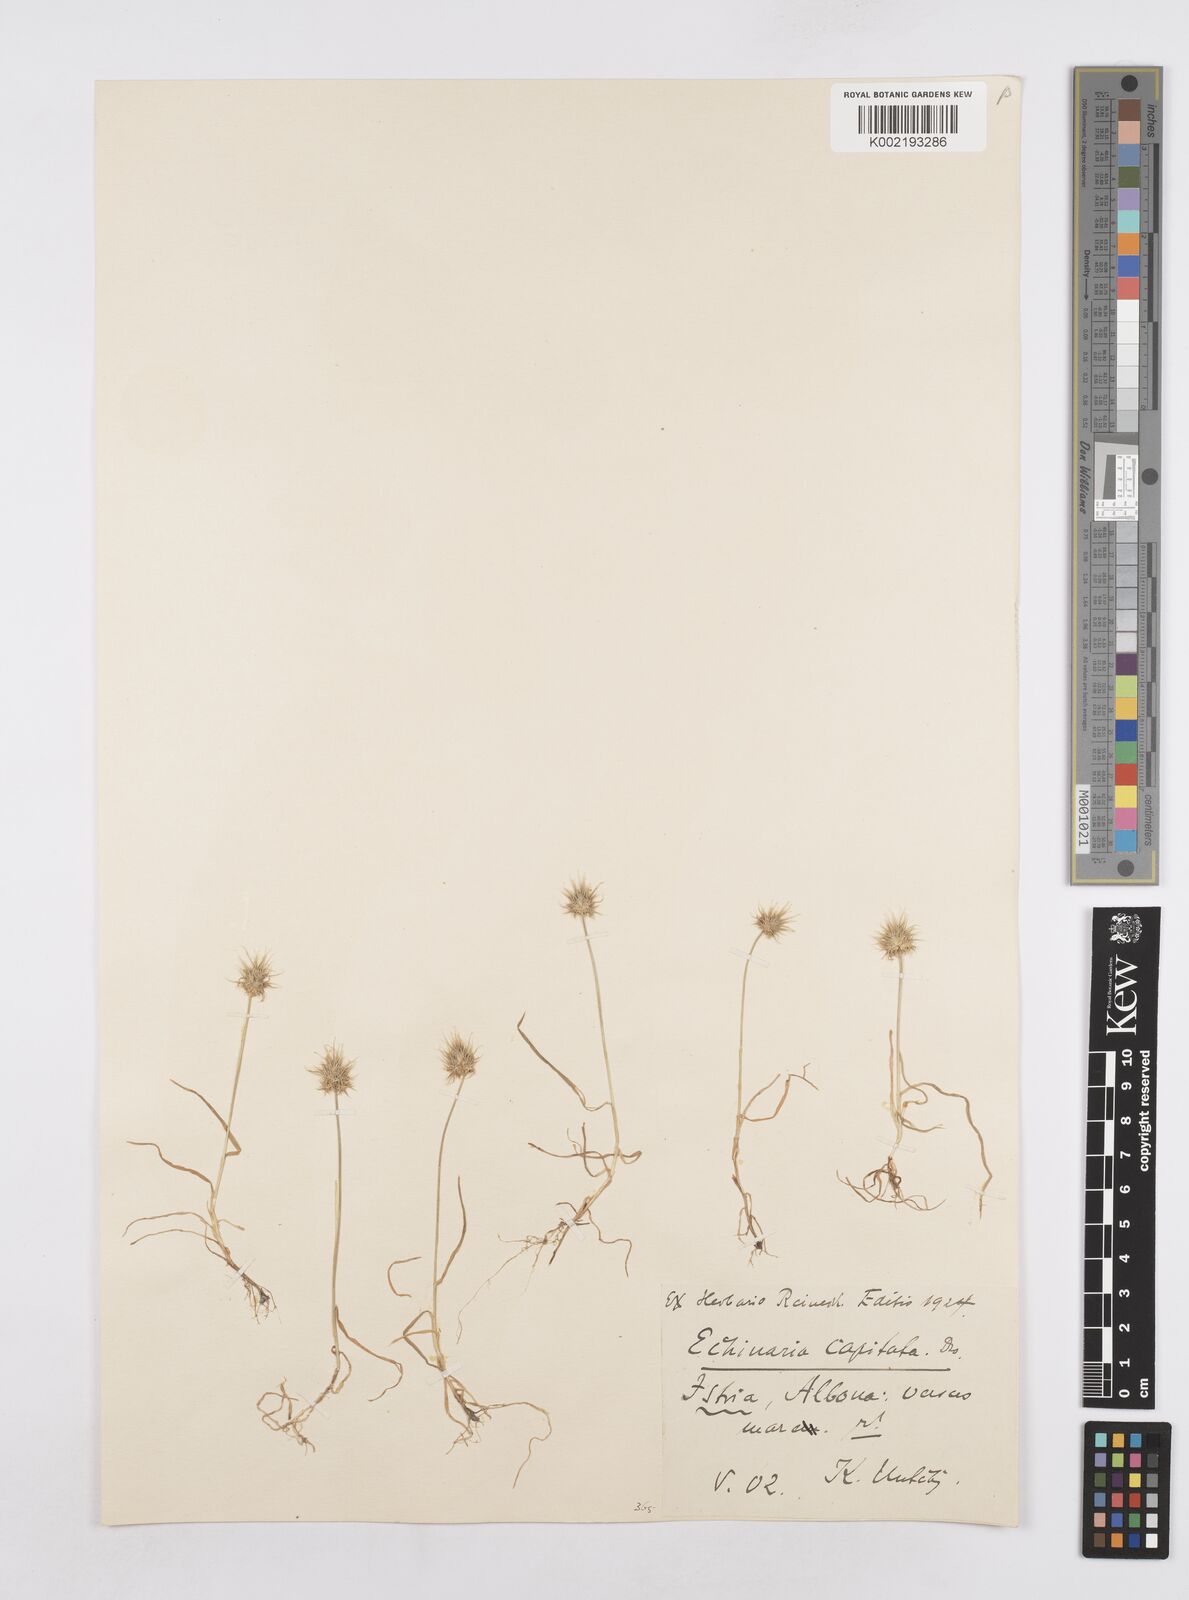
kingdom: Plantae
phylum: Tracheophyta
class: Liliopsida
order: Poales
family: Poaceae
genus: Echinaria
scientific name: Echinaria capitata
